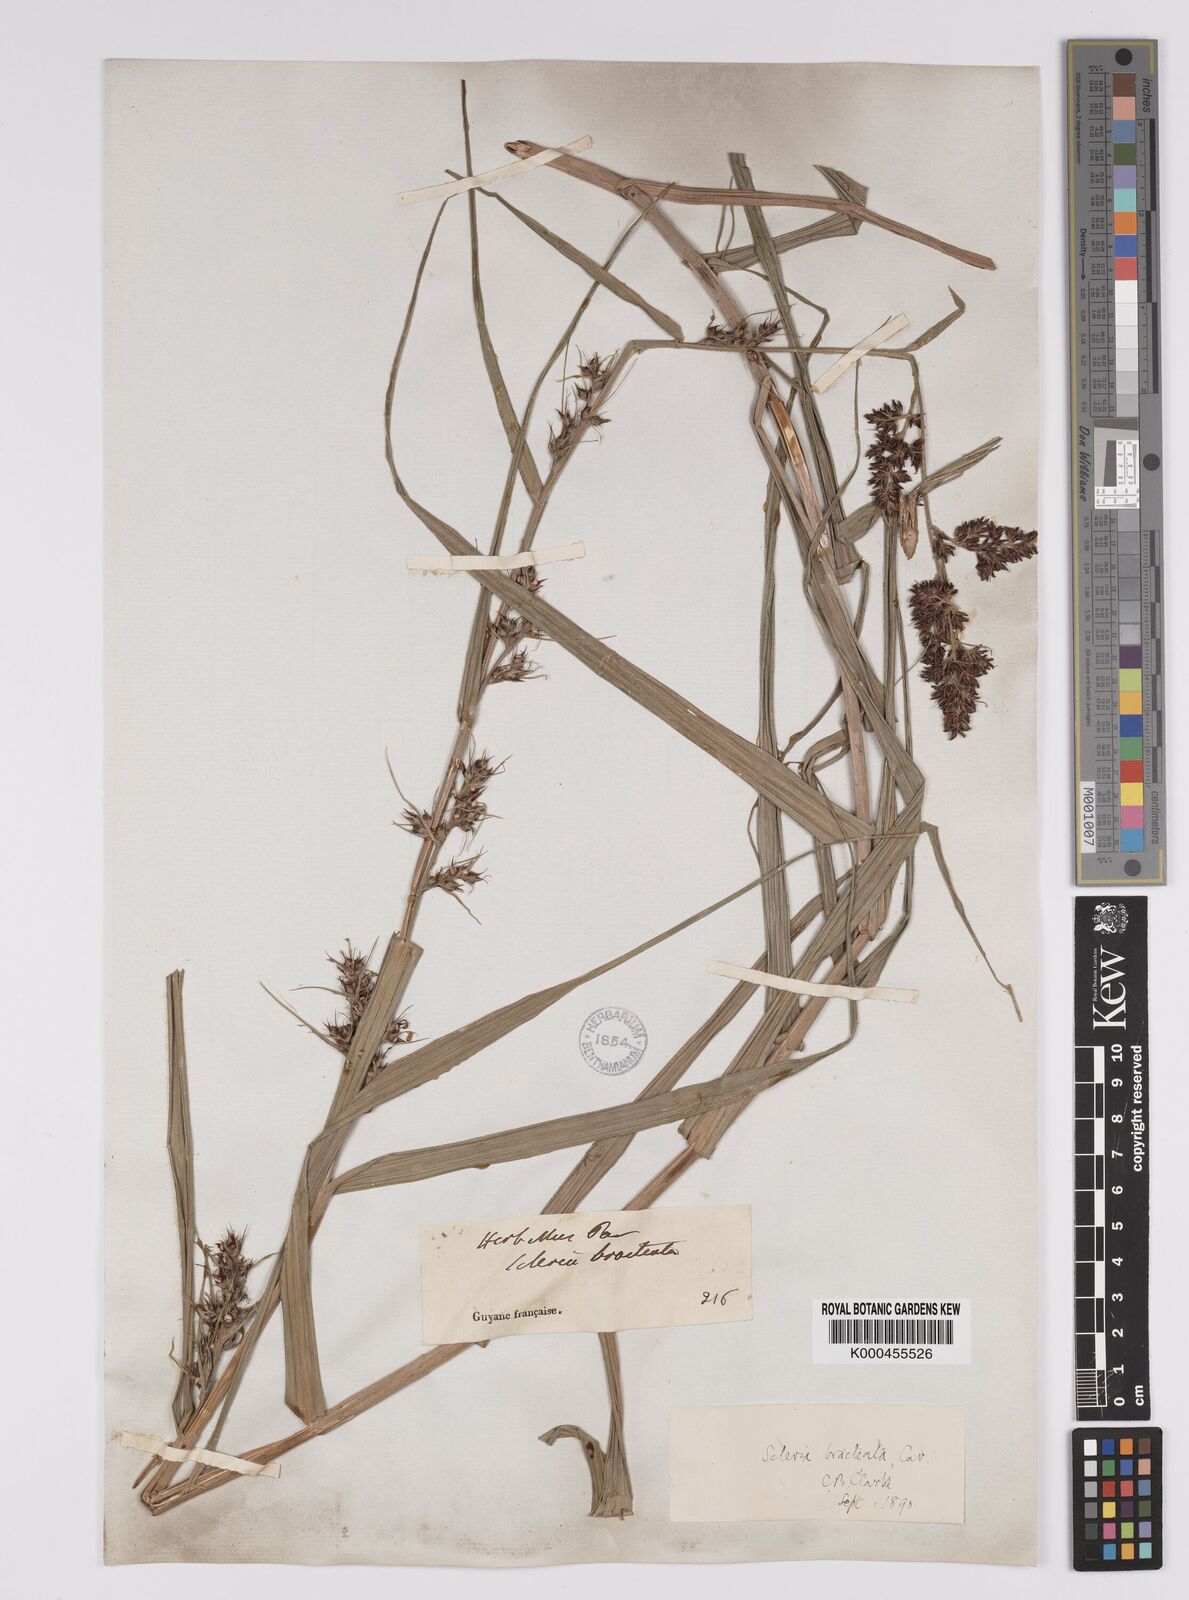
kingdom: Plantae
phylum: Tracheophyta
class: Liliopsida
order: Poales
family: Cyperaceae
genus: Scleria
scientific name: Scleria bracteata
